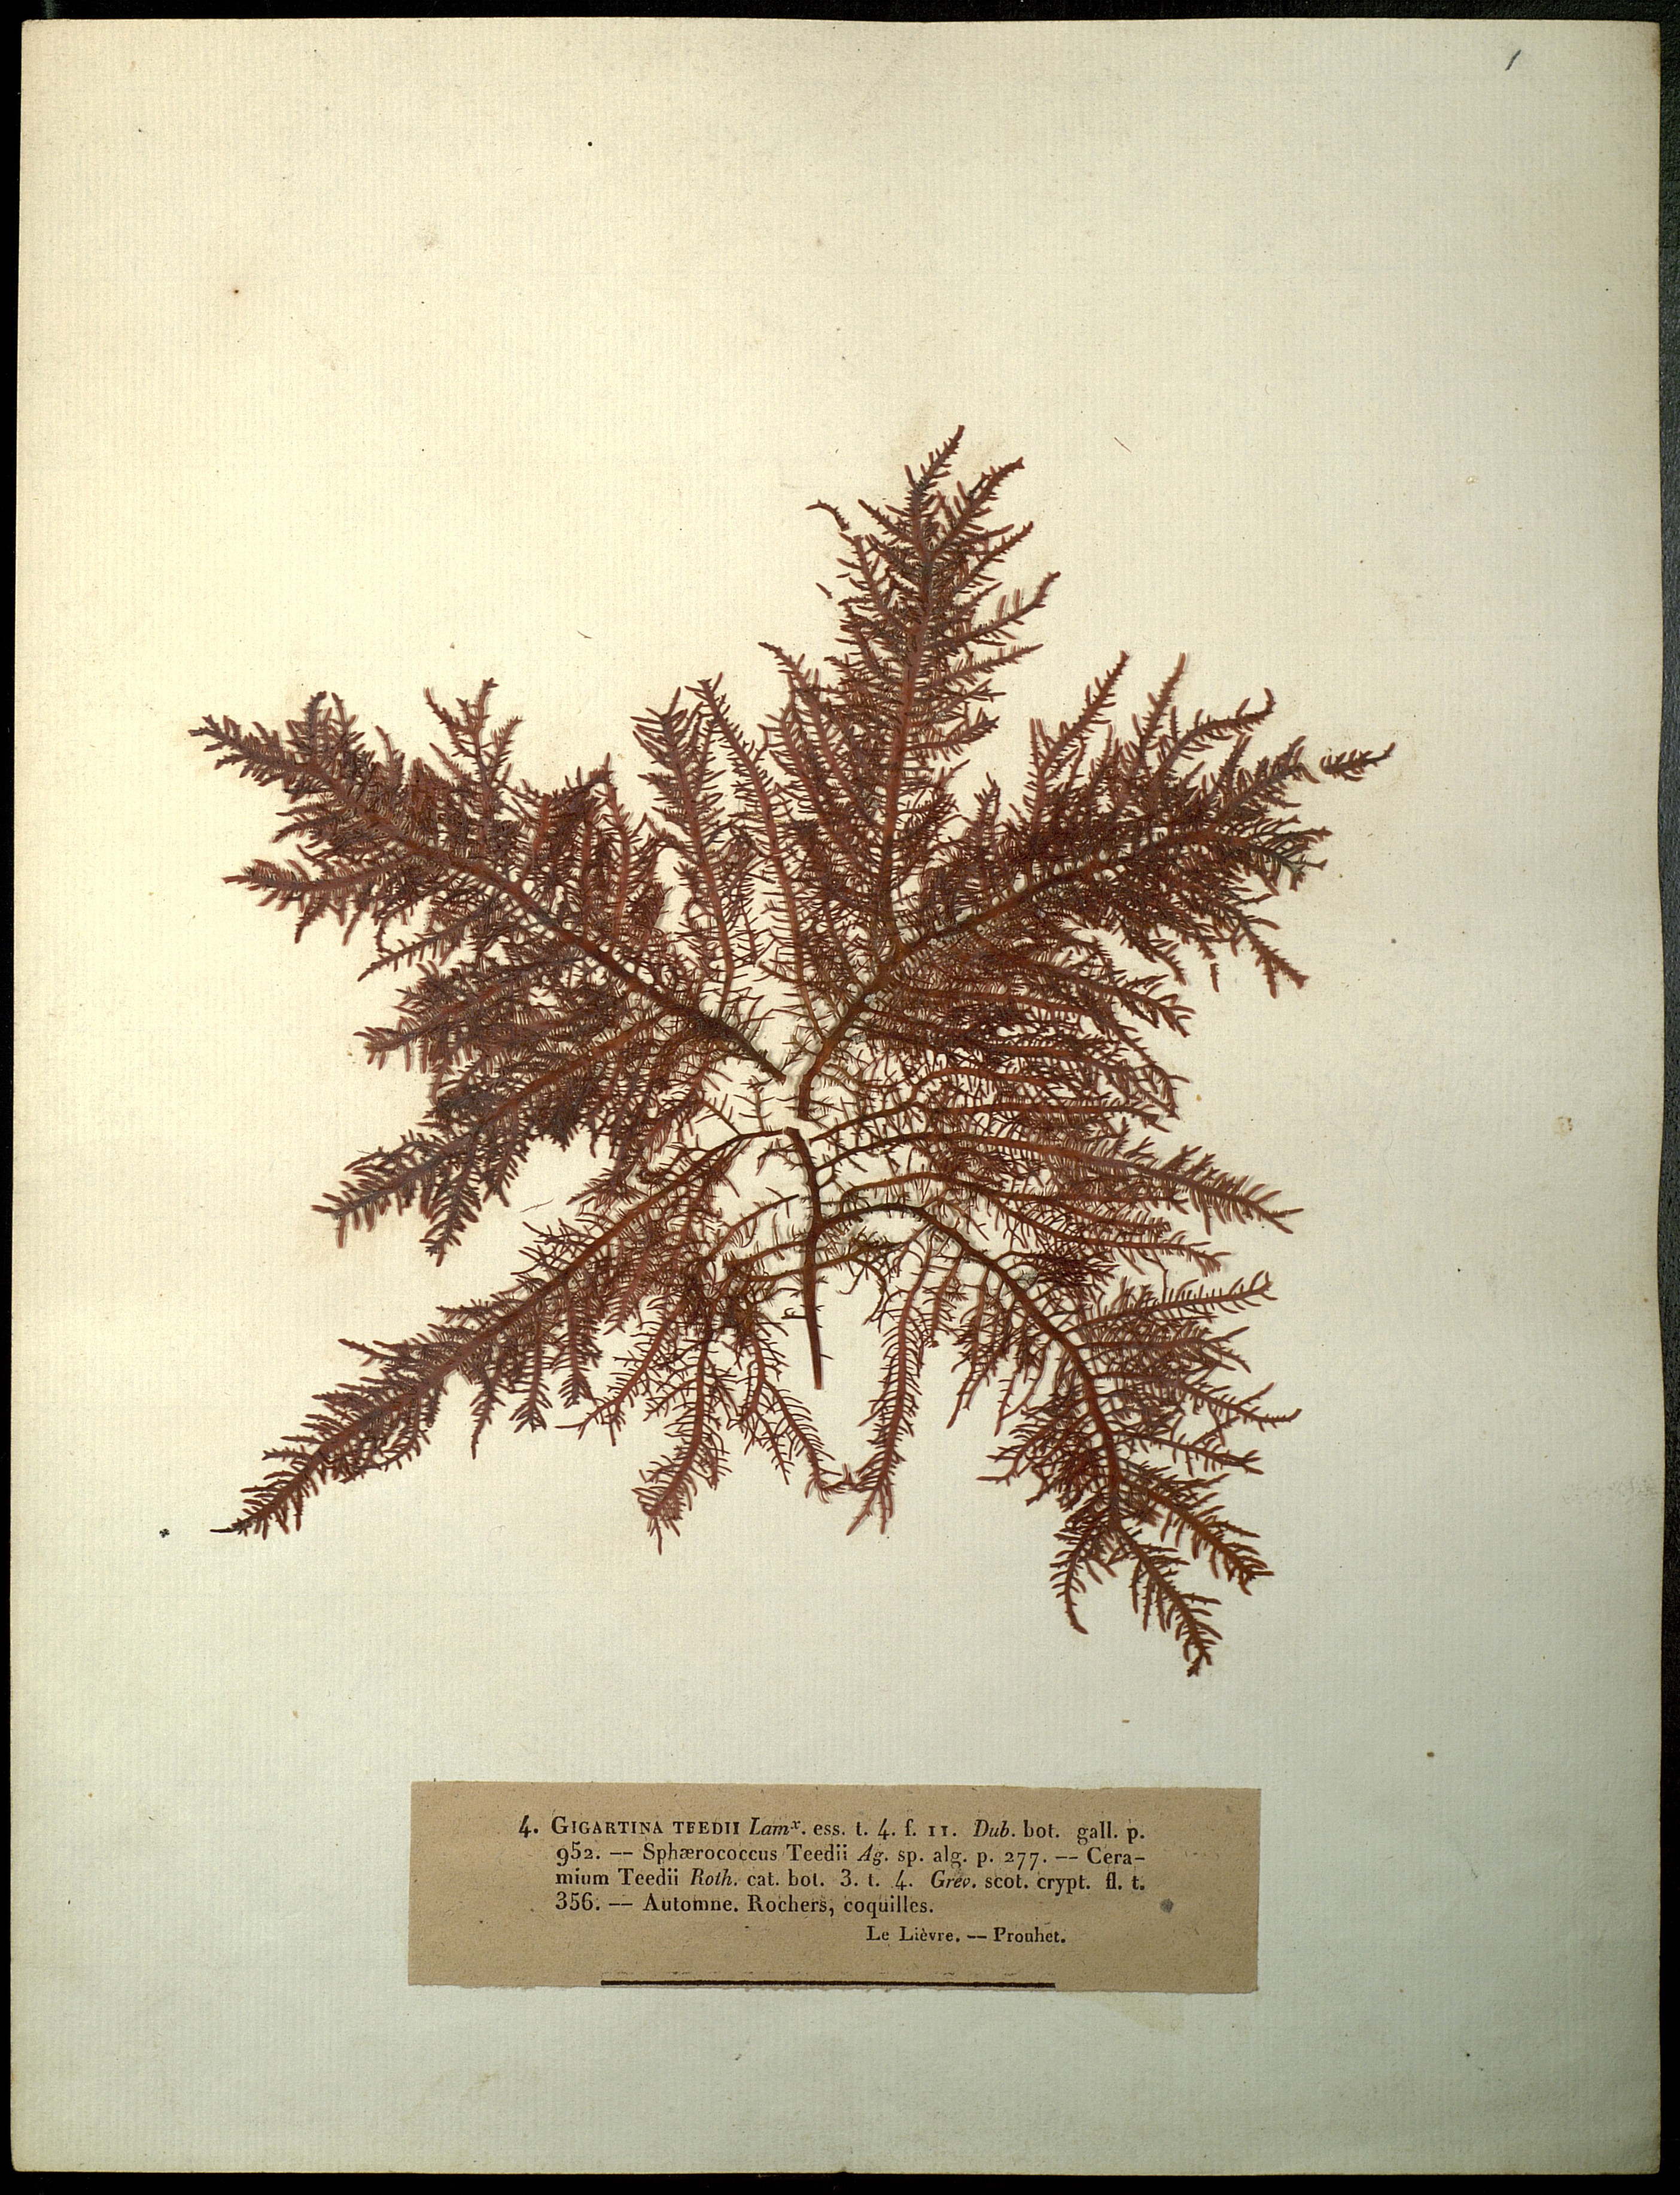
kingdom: Plantae
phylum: Rhodophyta
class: Florideophyceae
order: Gigartinales
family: Gigartinaceae
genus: Chondracanthus
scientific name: Chondracanthus teedei
